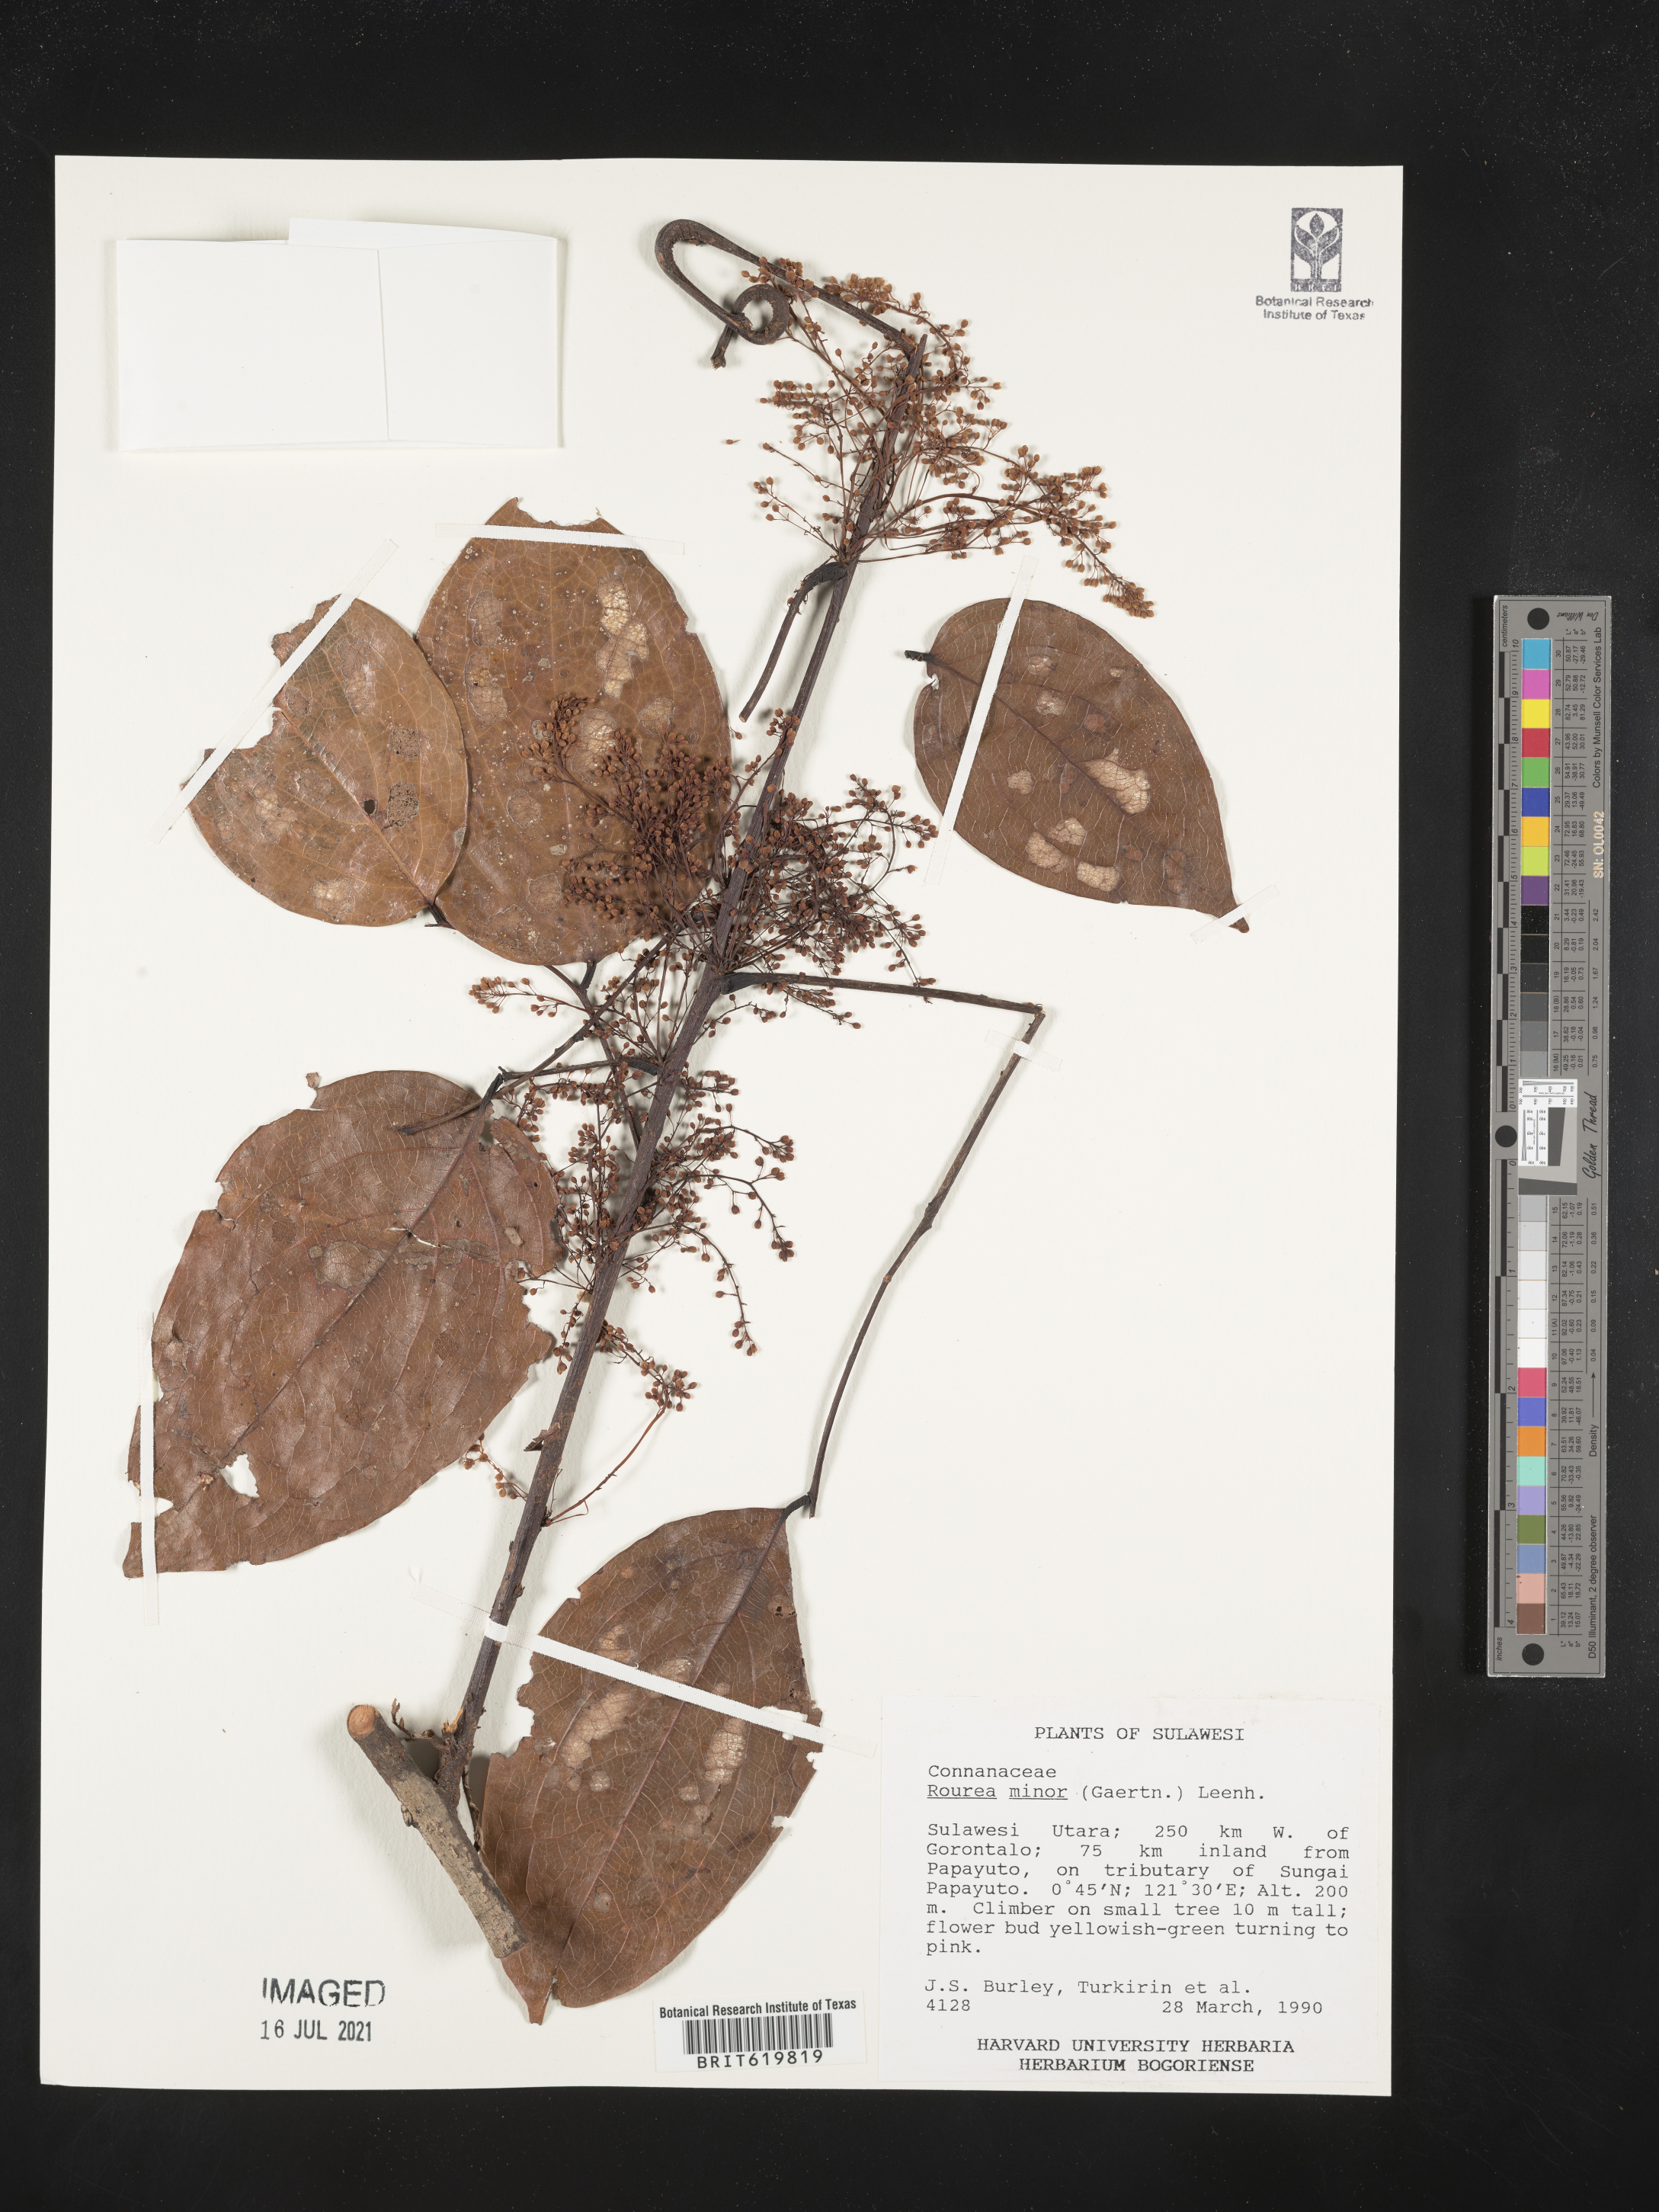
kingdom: Plantae
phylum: Tracheophyta
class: Magnoliopsida
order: Oxalidales
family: Connaraceae
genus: Rourea
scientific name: Rourea minor
